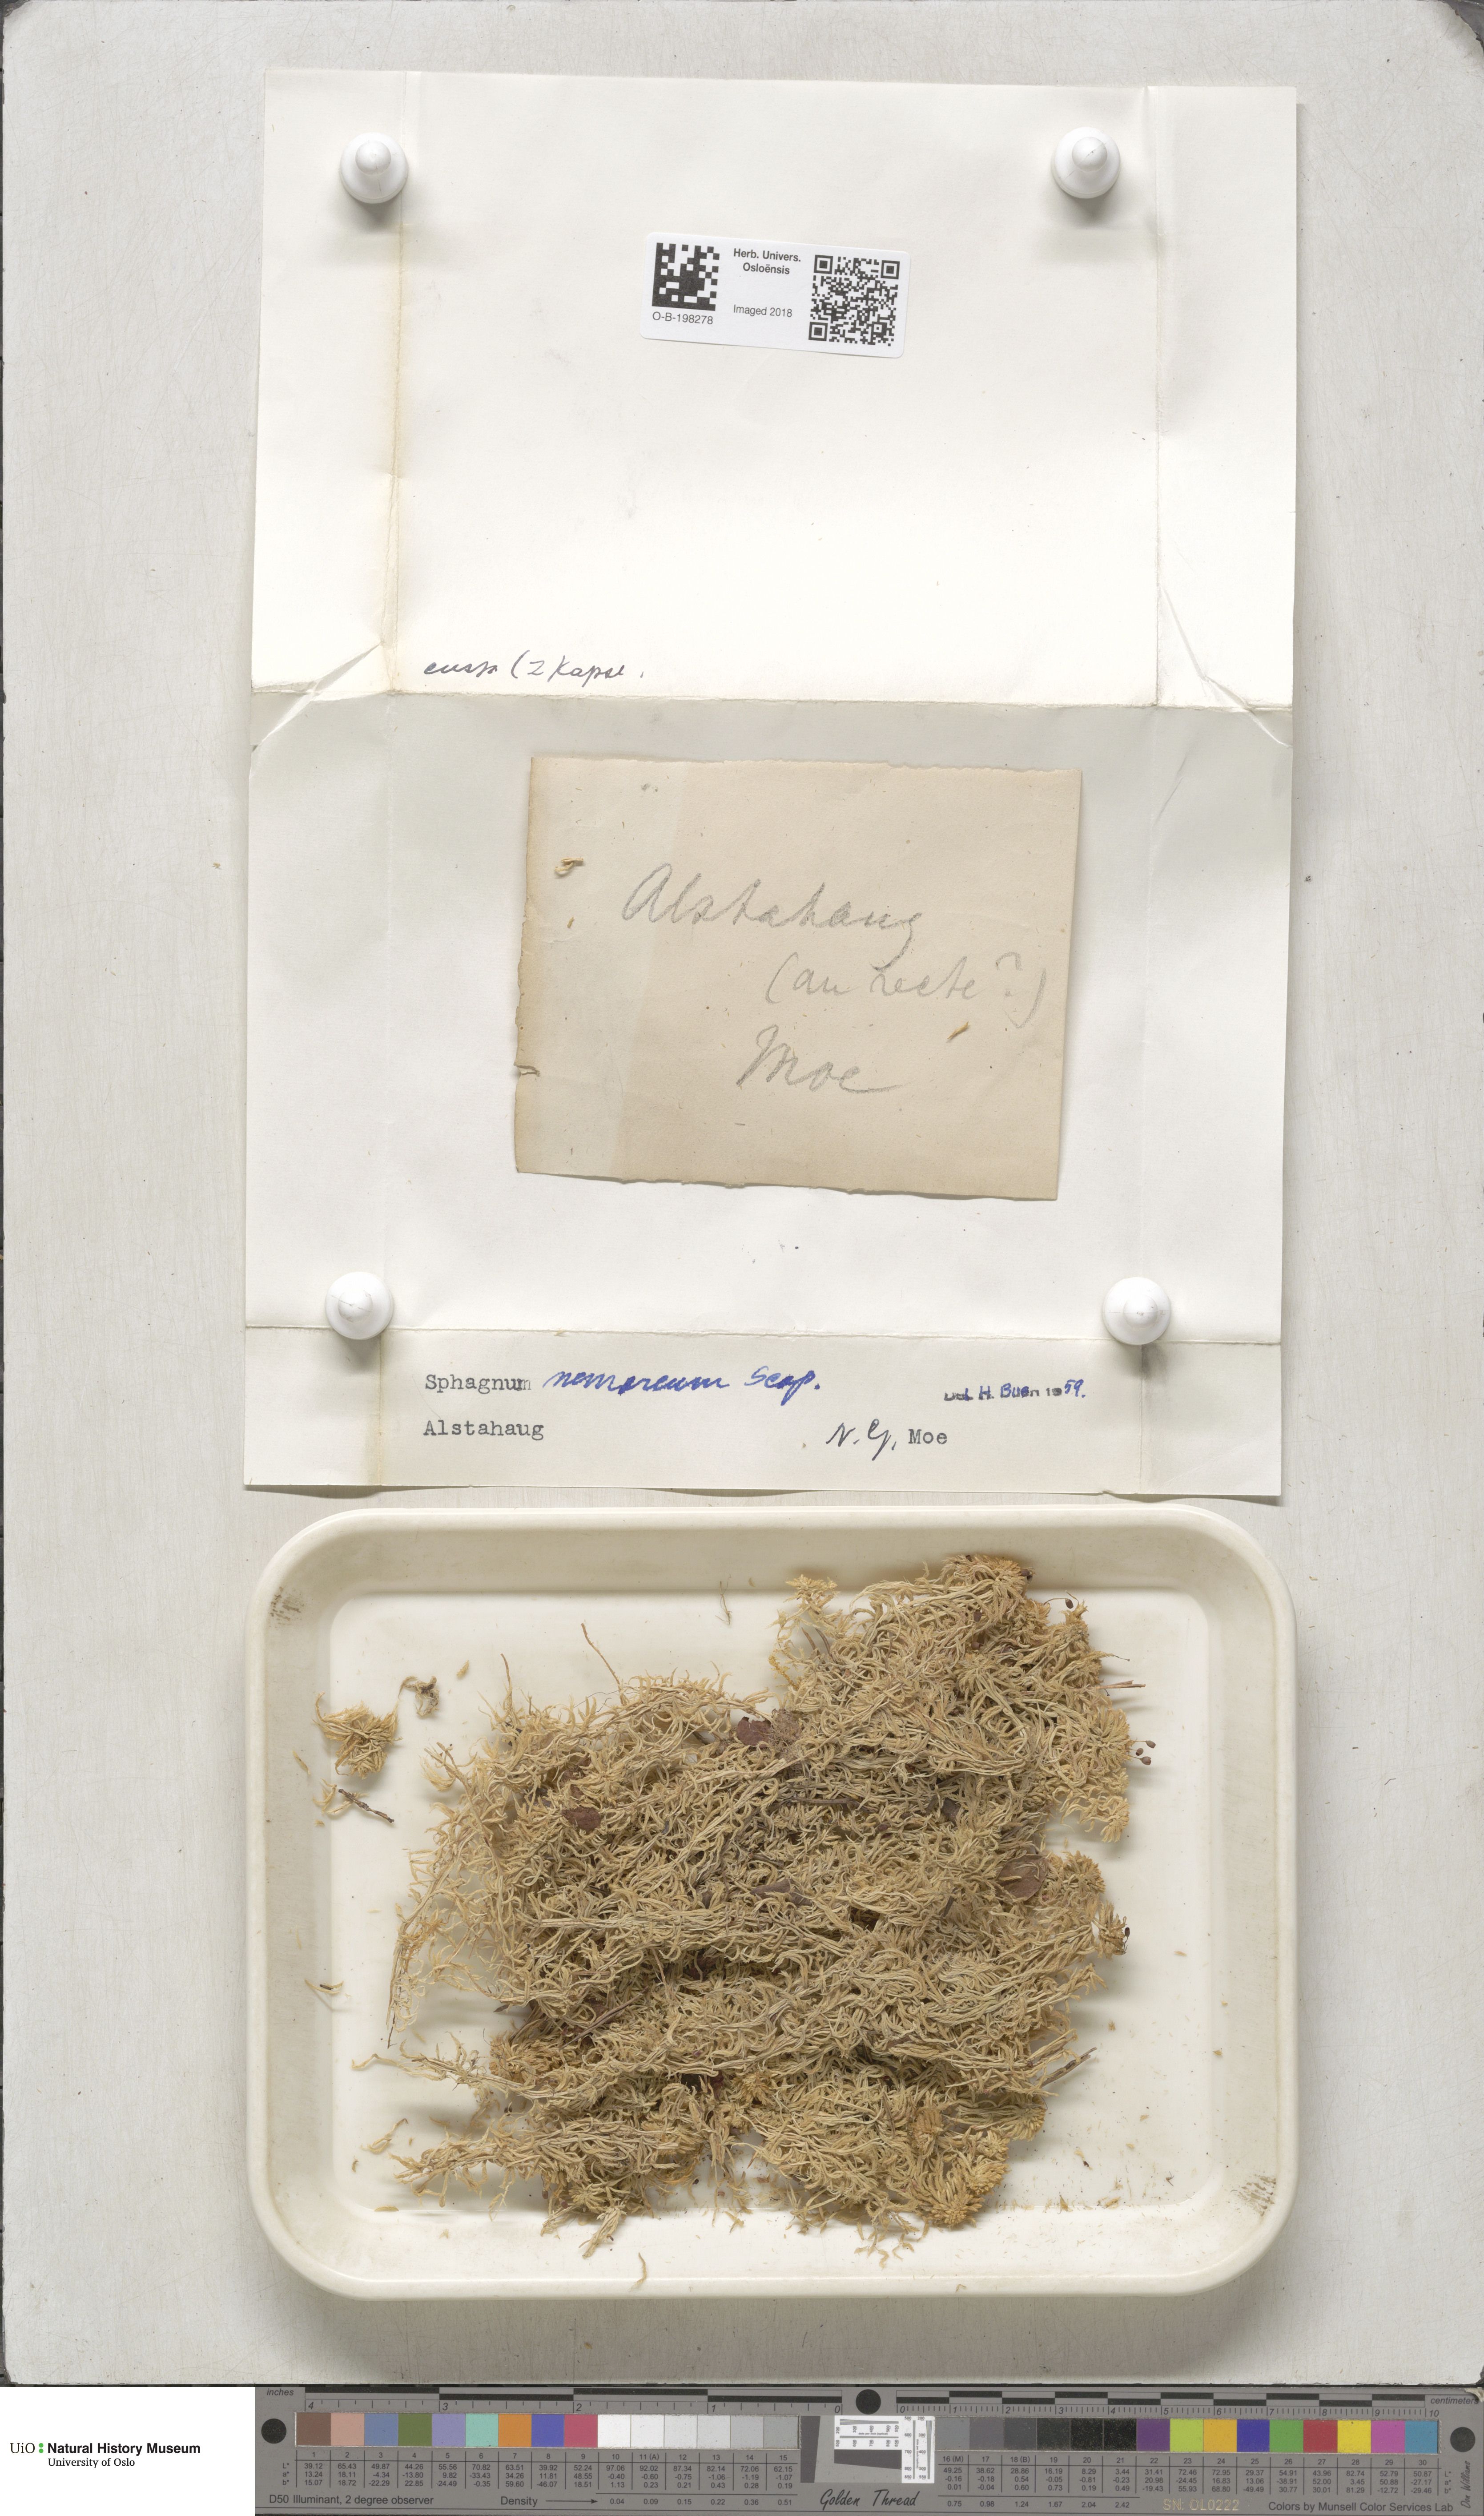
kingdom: Plantae
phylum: Bryophyta
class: Sphagnopsida
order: Sphagnales
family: Sphagnaceae
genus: Sphagnum
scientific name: Sphagnum capillifolium
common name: Small red peat moss
